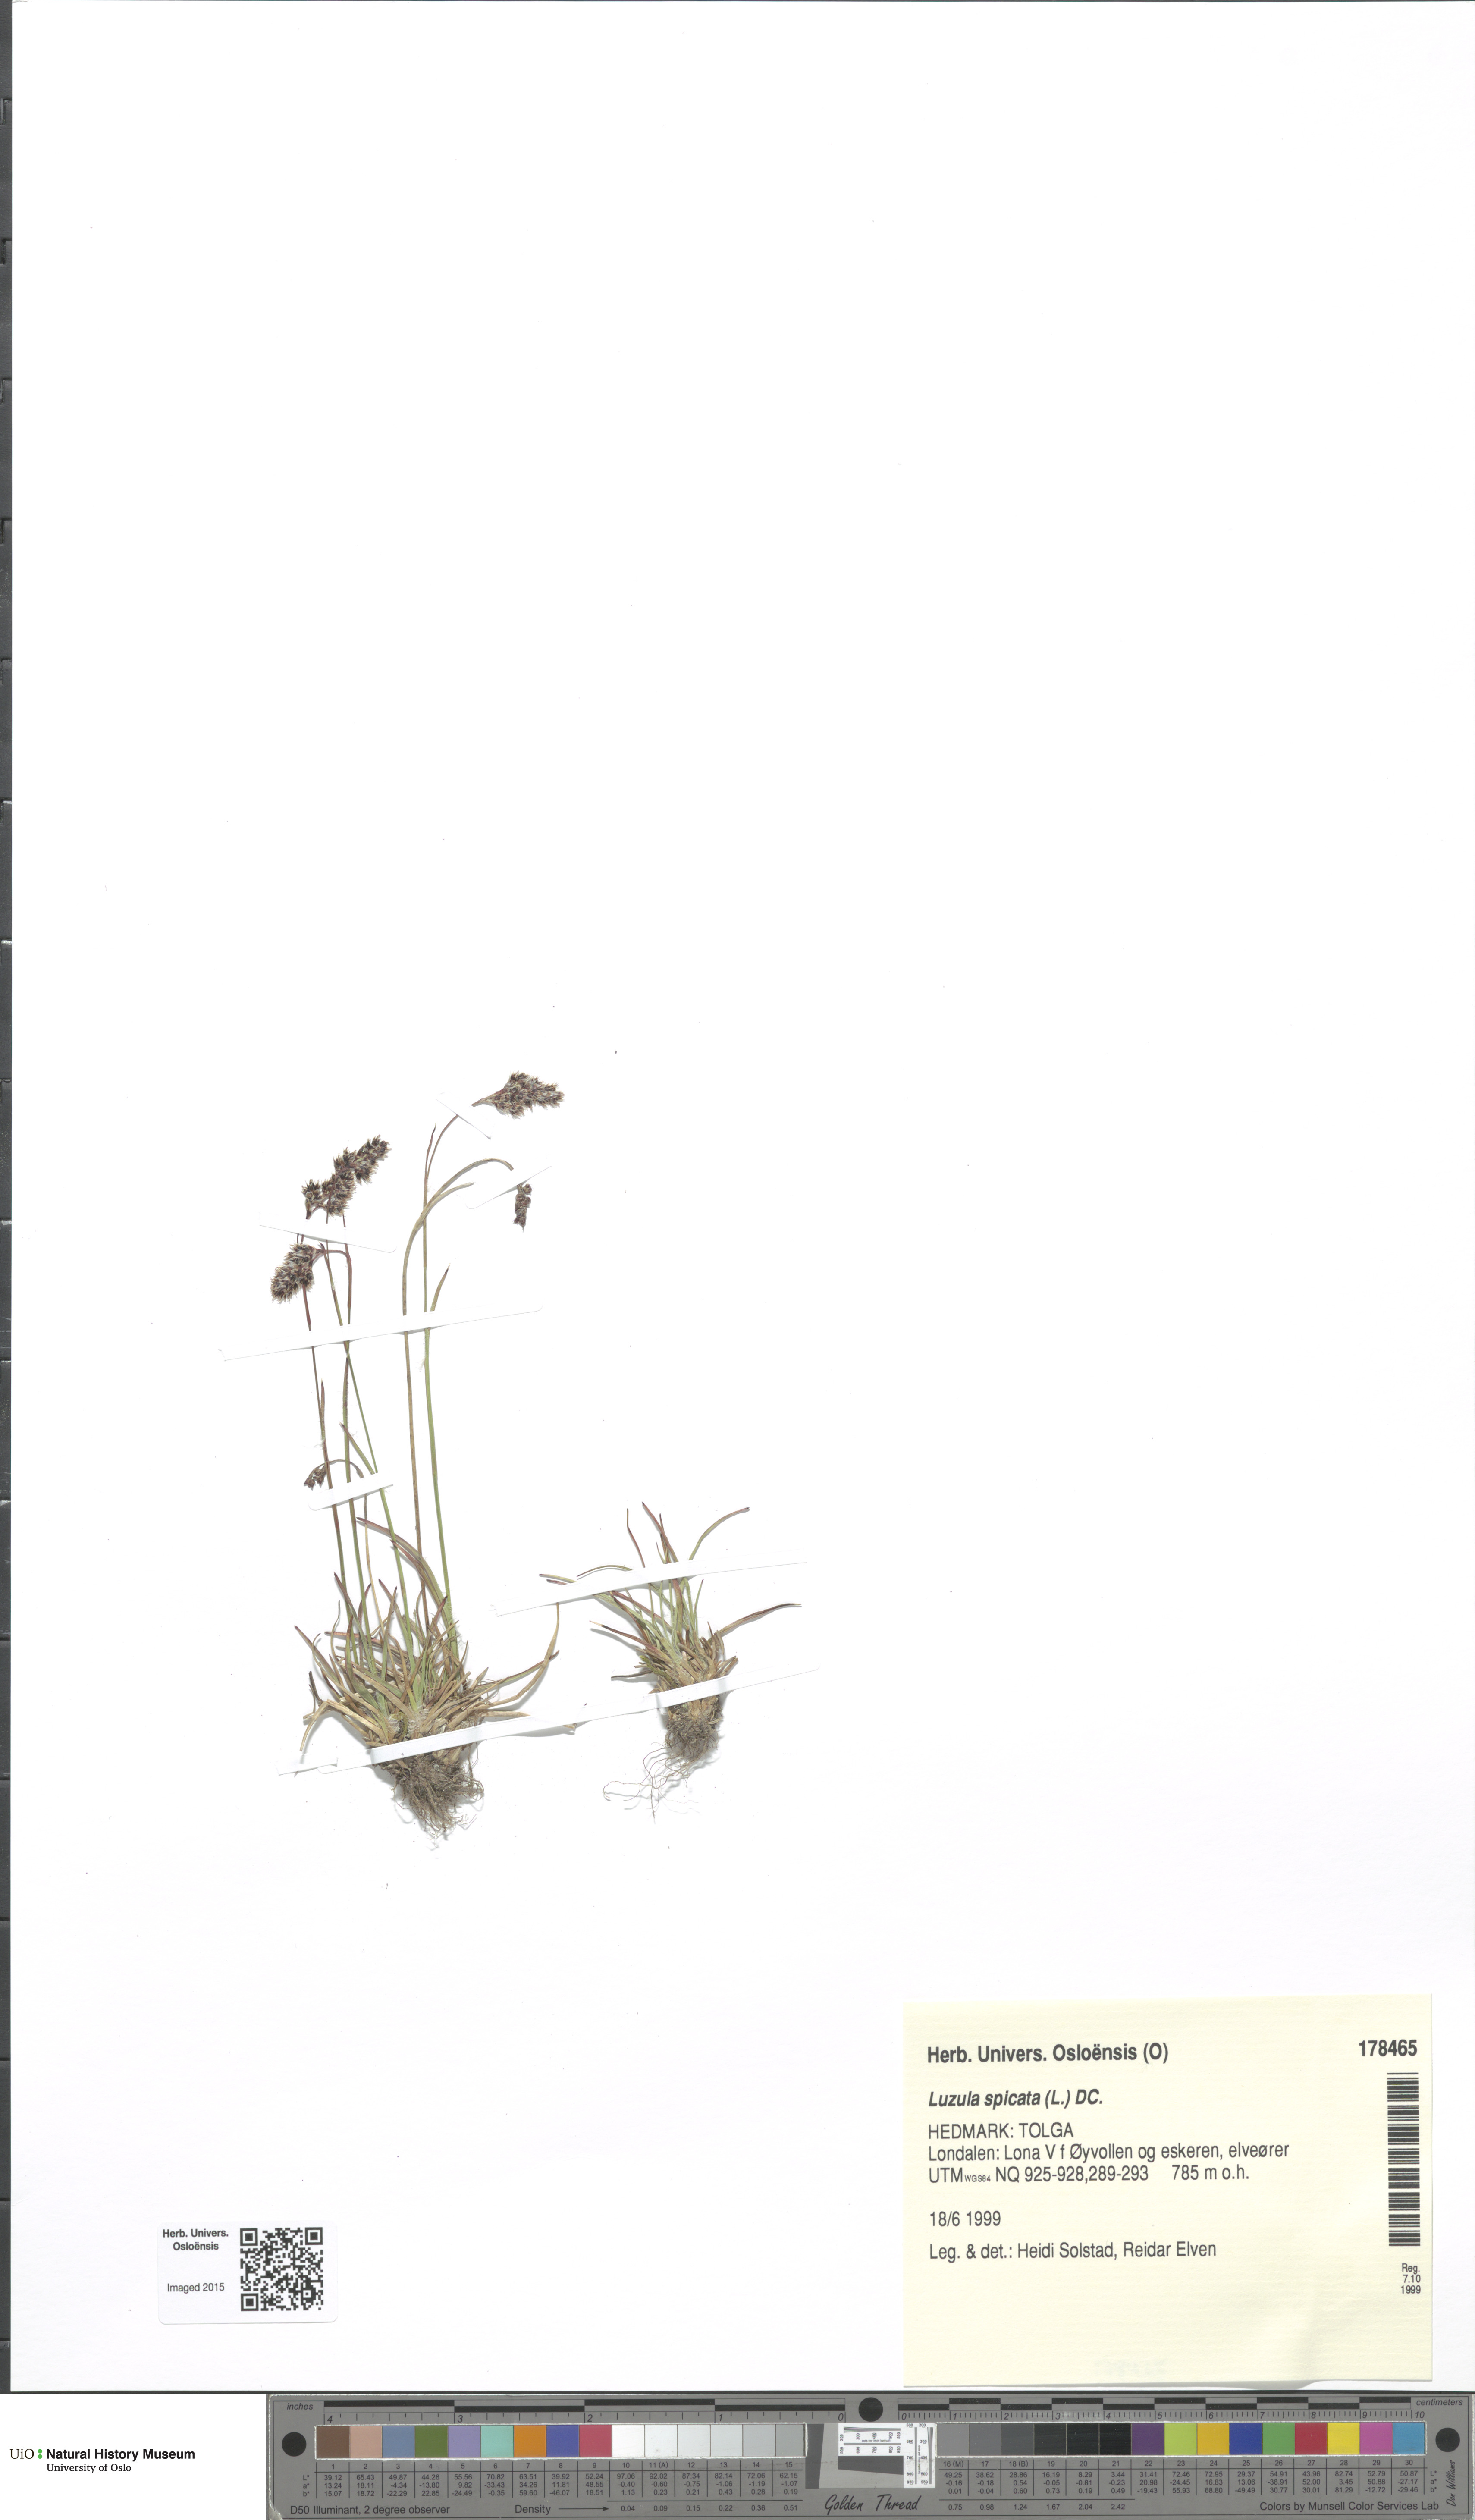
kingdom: Plantae
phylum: Tracheophyta
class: Liliopsida
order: Poales
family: Juncaceae
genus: Luzula
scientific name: Luzula spicata
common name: Spiked wood-rush
